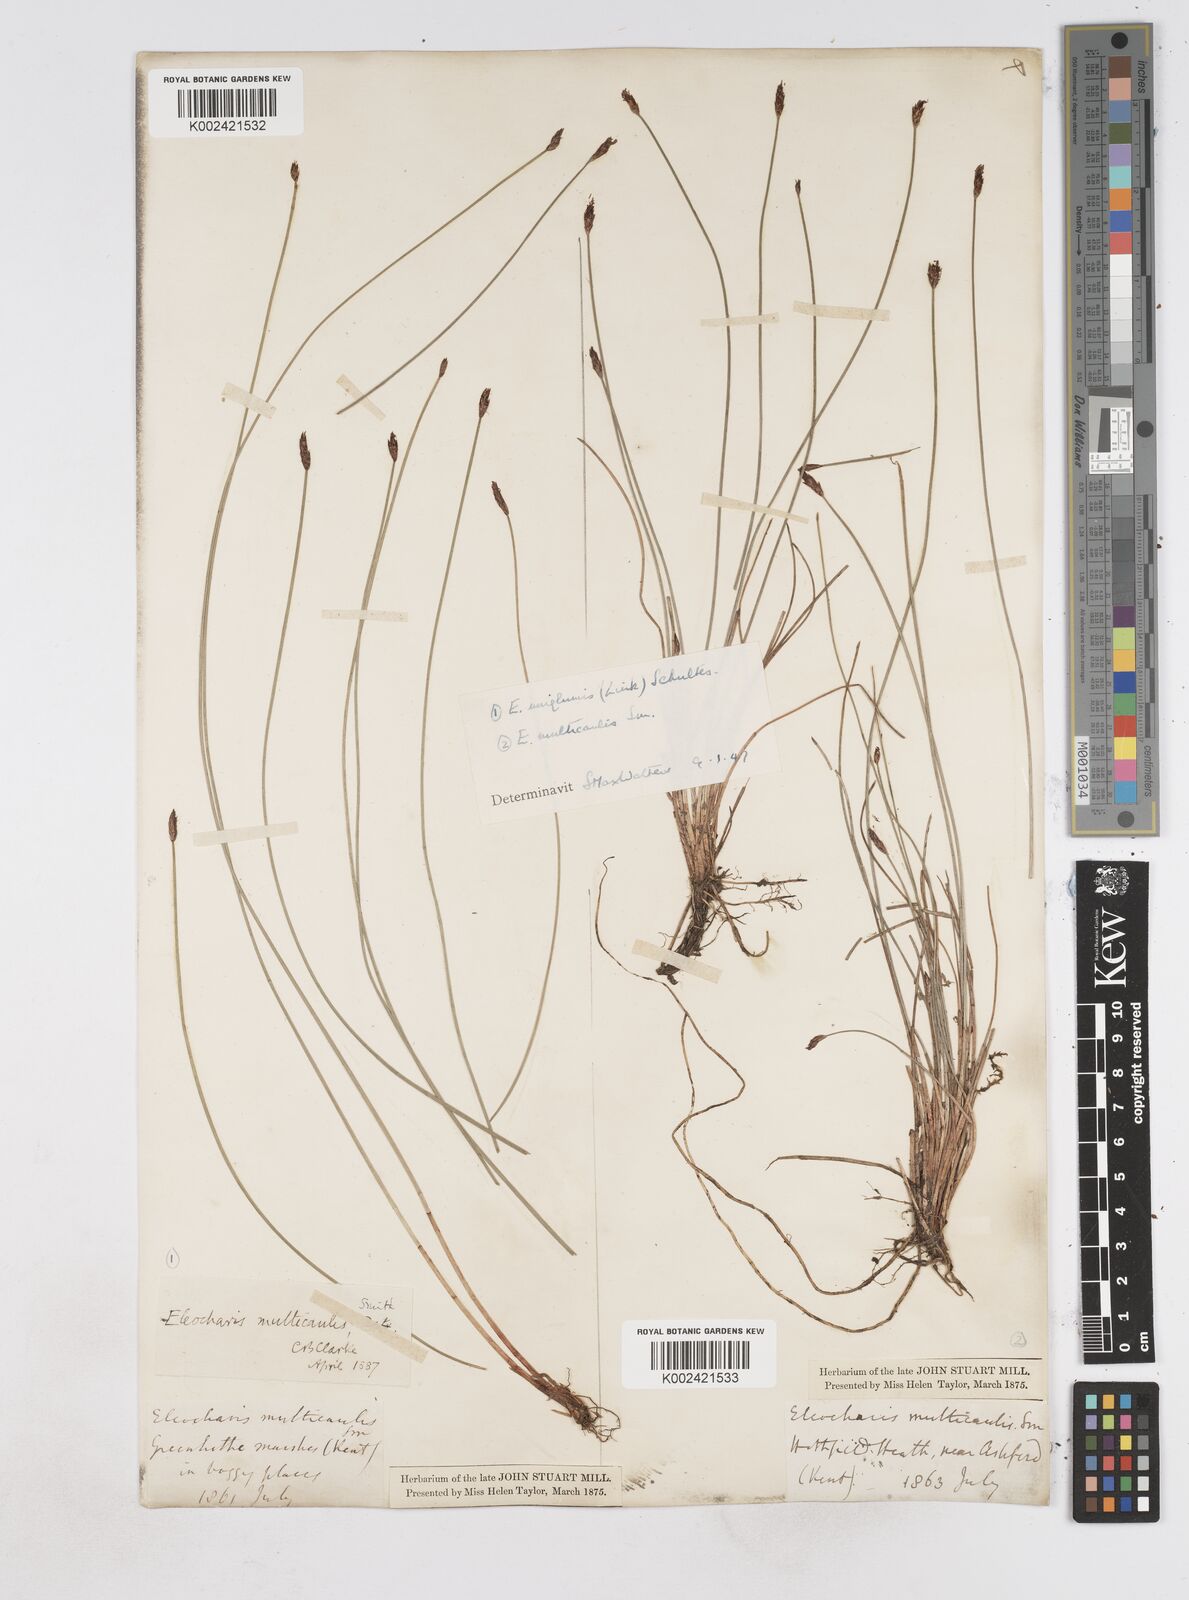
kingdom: Plantae
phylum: Tracheophyta
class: Liliopsida
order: Poales
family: Cyperaceae
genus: Eleocharis
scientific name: Eleocharis multicaulis
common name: Many-stalked spike-rush
